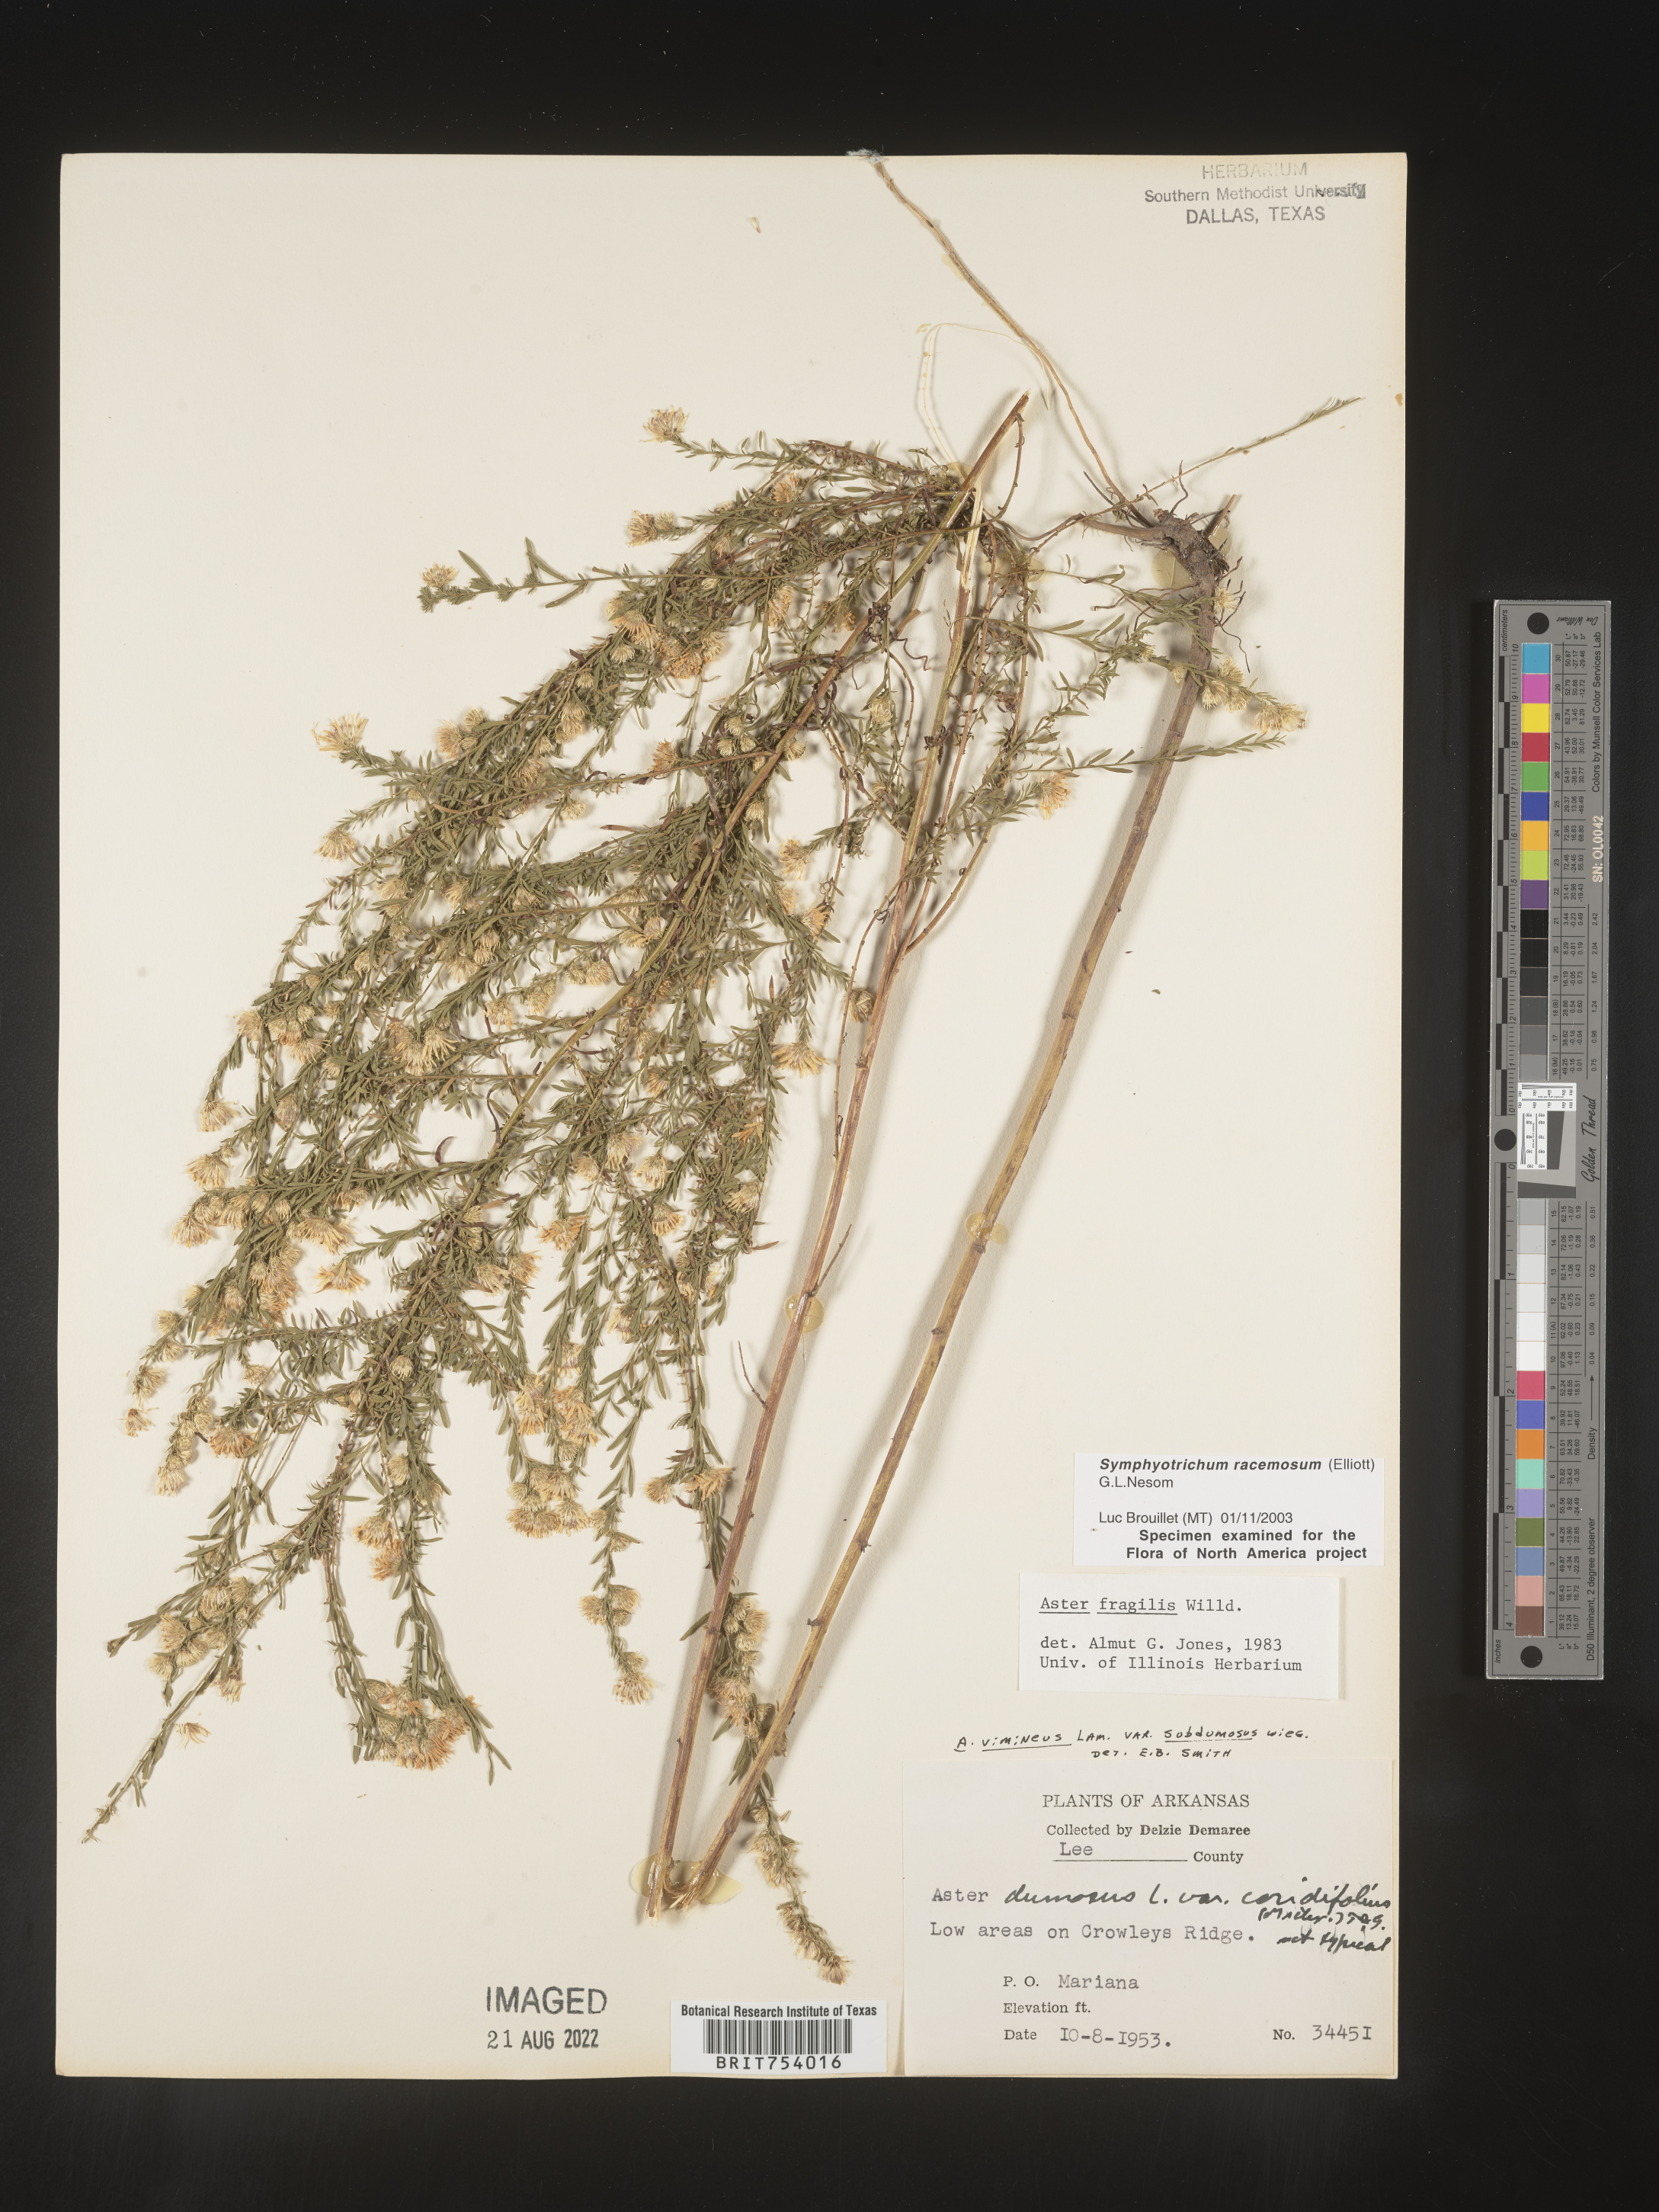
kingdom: Plantae
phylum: Tracheophyta
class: Magnoliopsida
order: Asterales
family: Asteraceae
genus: Symphyotrichum
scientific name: Symphyotrichum racemosum
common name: Small white aster
